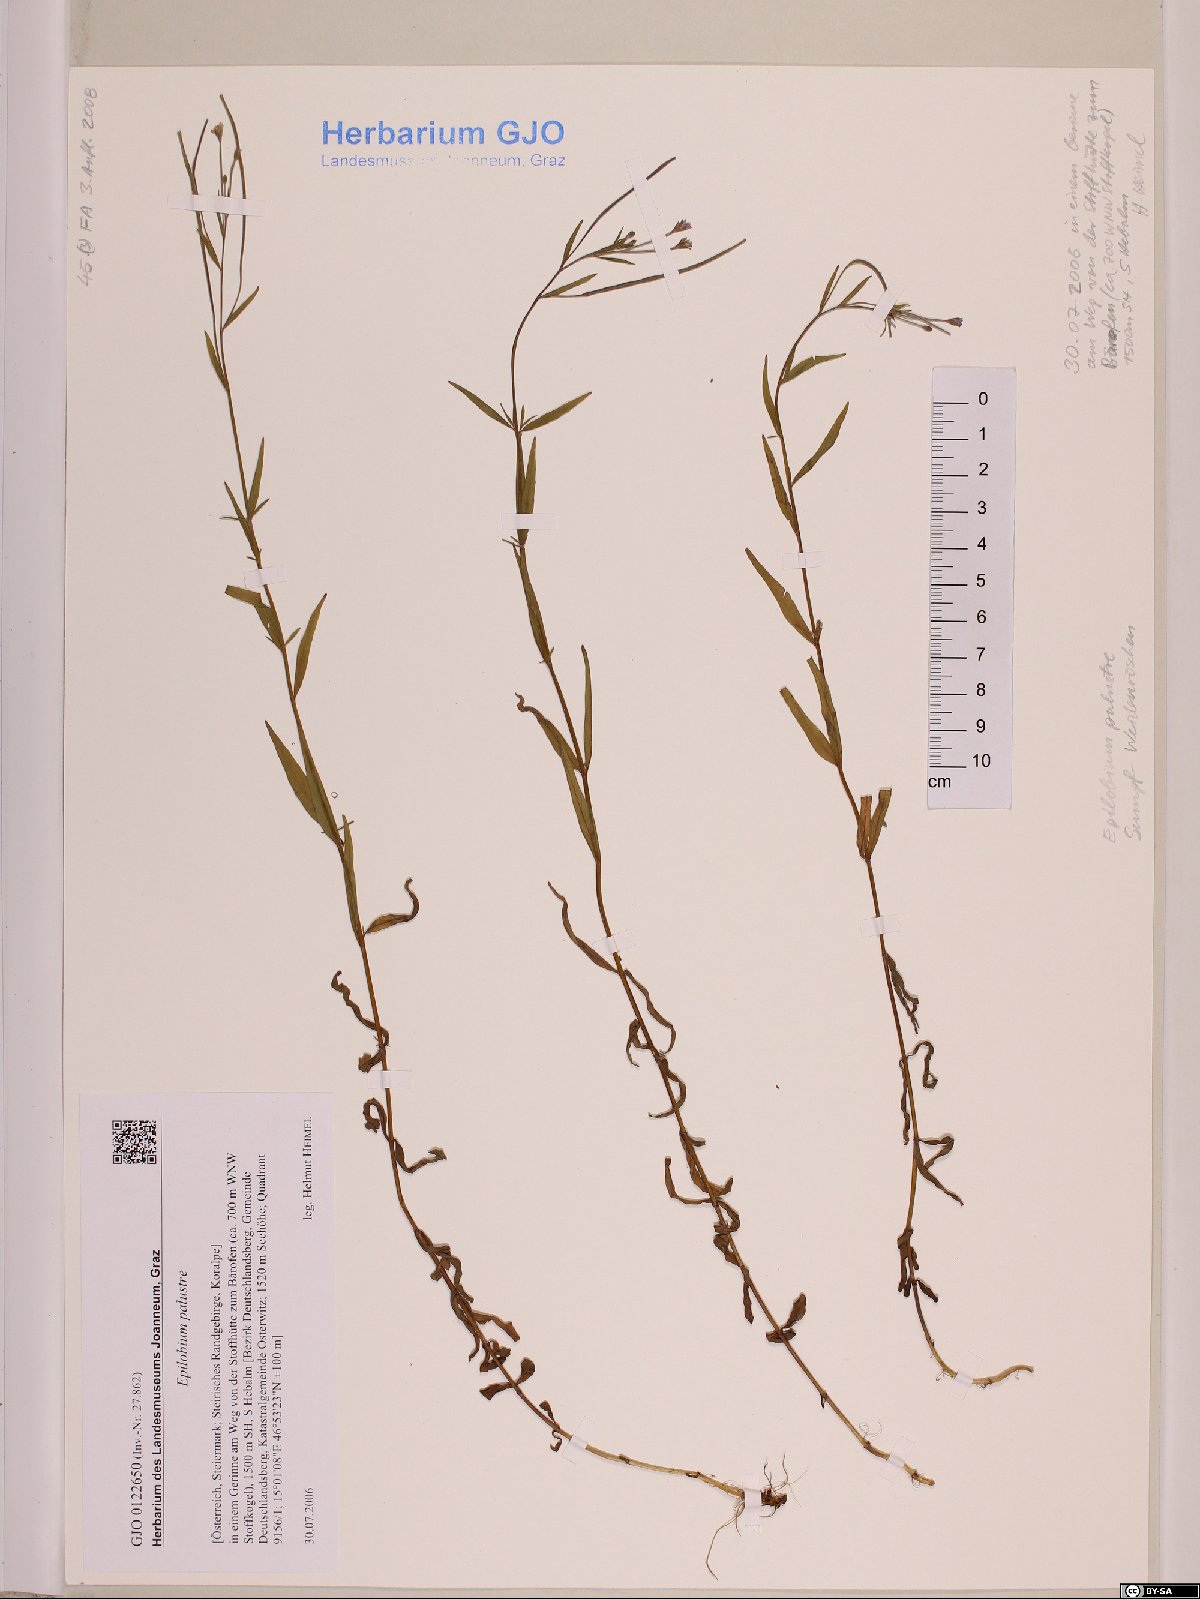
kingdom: Plantae
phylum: Tracheophyta
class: Magnoliopsida
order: Myrtales
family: Onagraceae
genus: Epilobium
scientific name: Epilobium palustre
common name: Marsh willowherb
